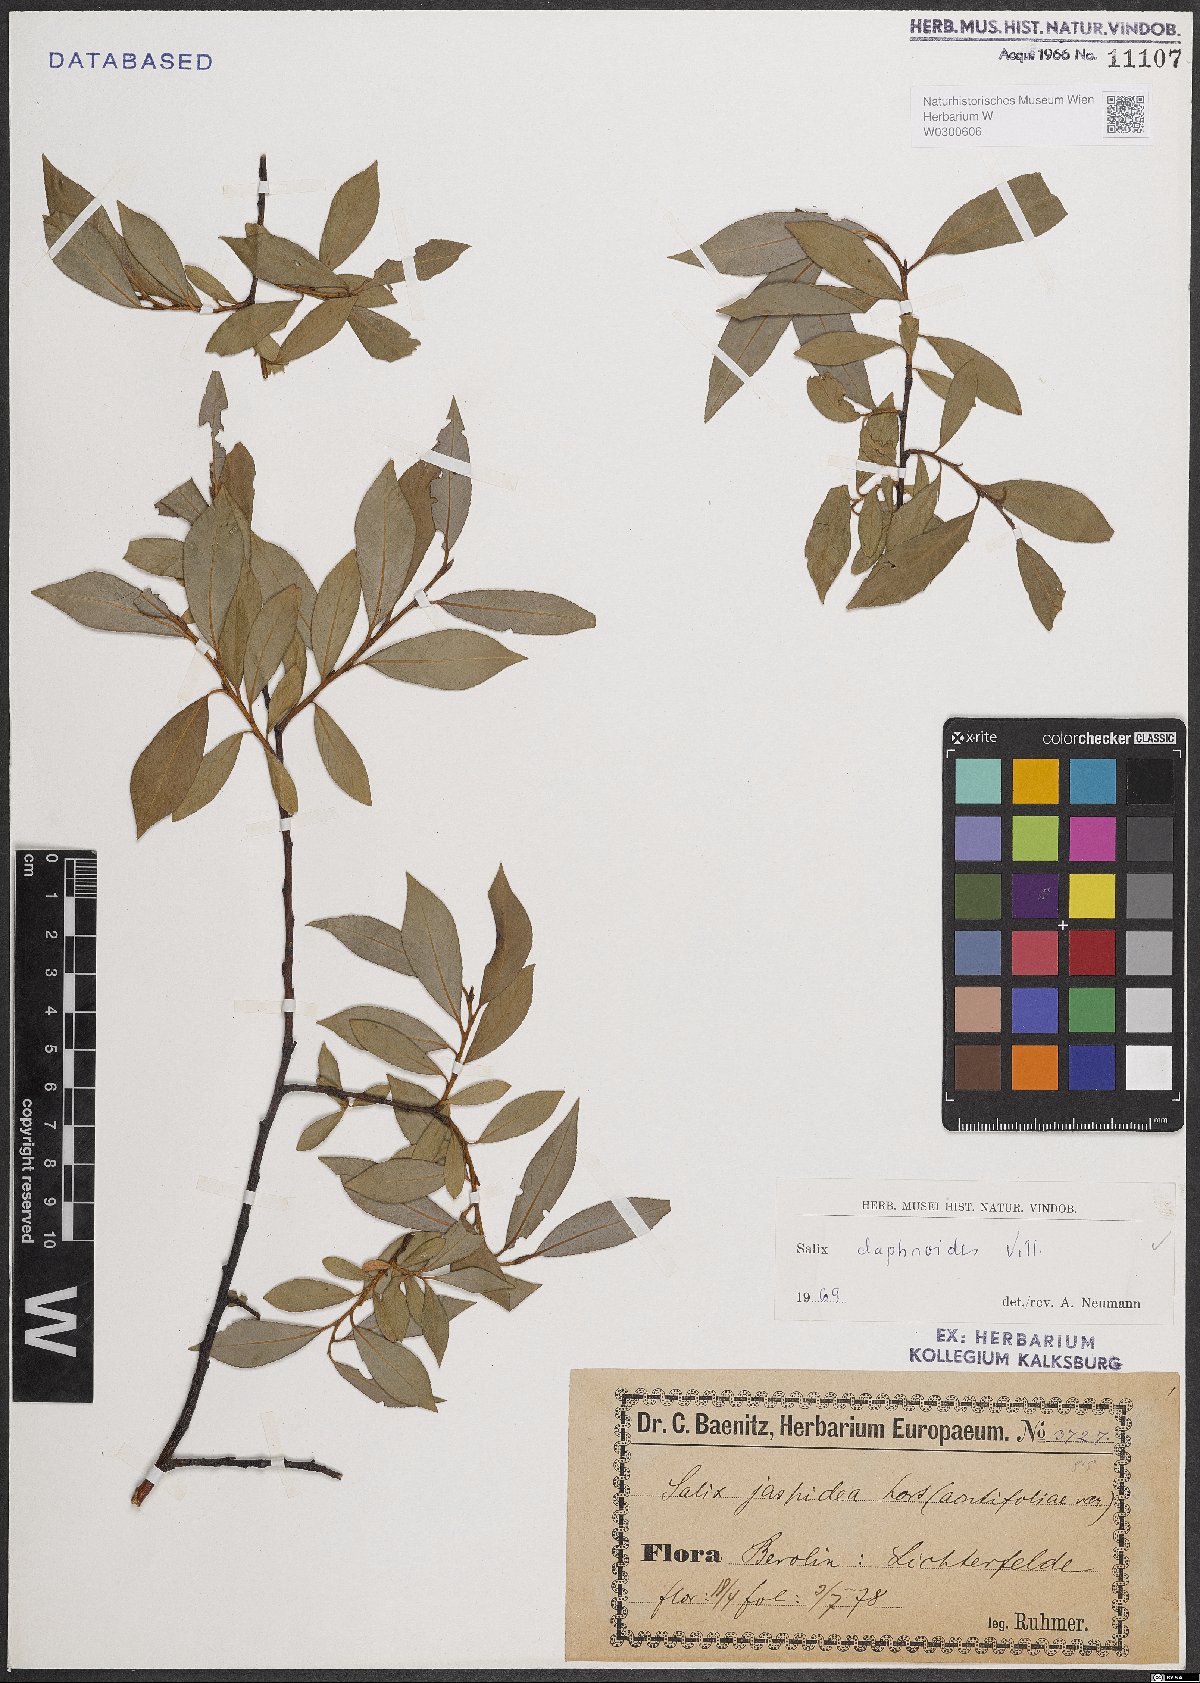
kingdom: Plantae
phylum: Tracheophyta
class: Magnoliopsida
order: Malpighiales
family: Salicaceae
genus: Salix
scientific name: Salix daphnoides
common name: European violet-willow
